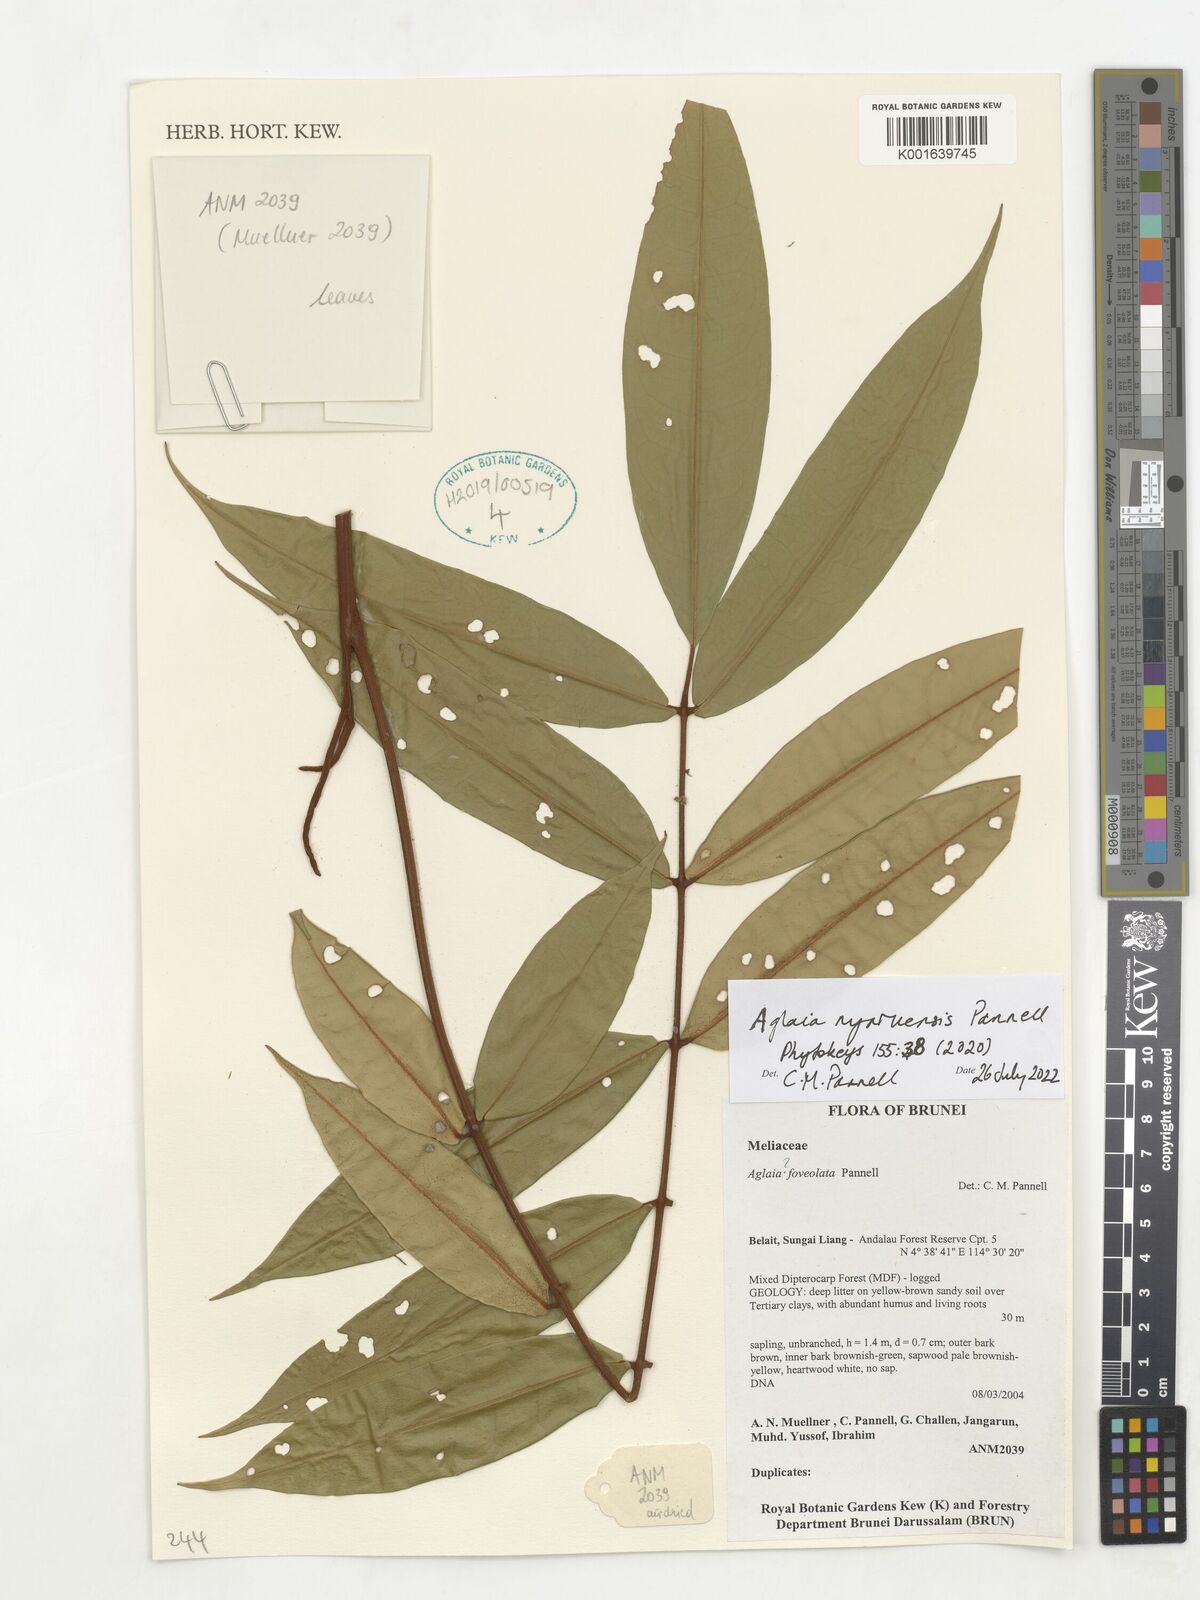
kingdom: Plantae
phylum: Tracheophyta
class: Magnoliopsida
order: Sapindales
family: Meliaceae
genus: Aglaia
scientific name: Aglaia
